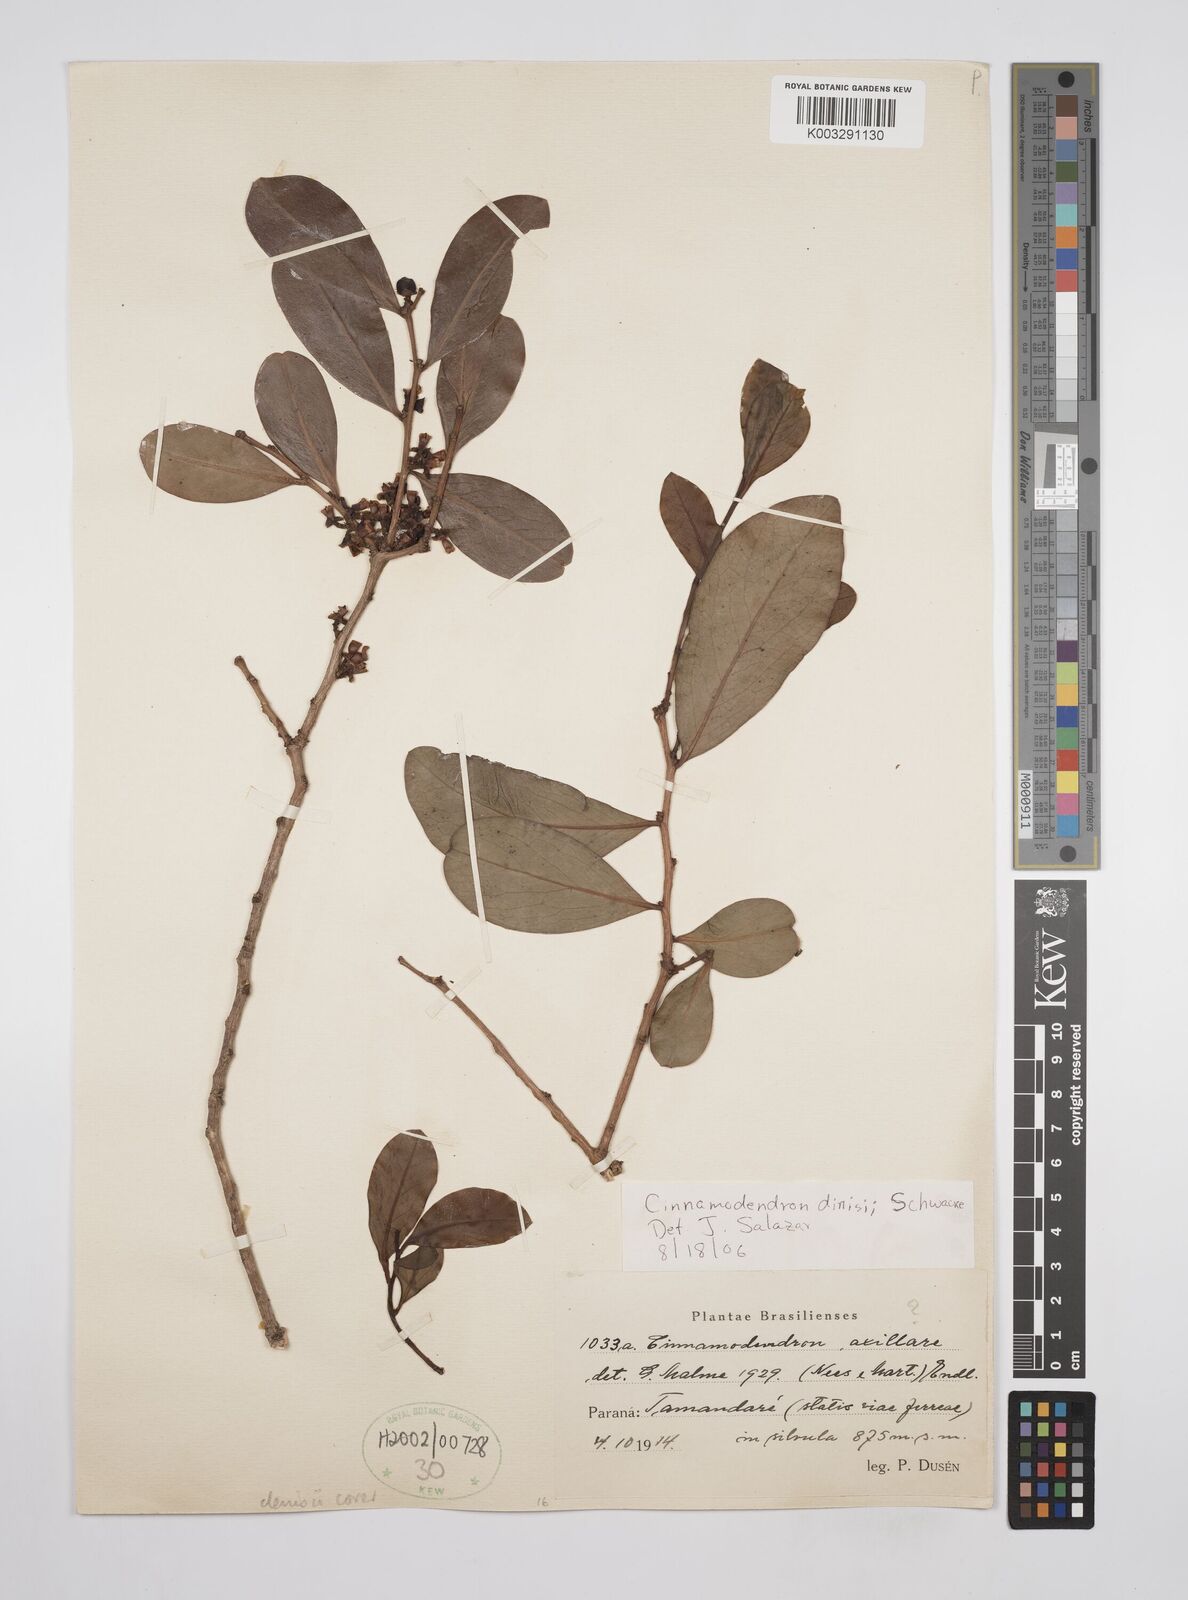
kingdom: Plantae
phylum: Tracheophyta
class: Magnoliopsida
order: Canellales
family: Canellaceae
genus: Cinnamodendron
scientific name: Cinnamodendron dinisii
